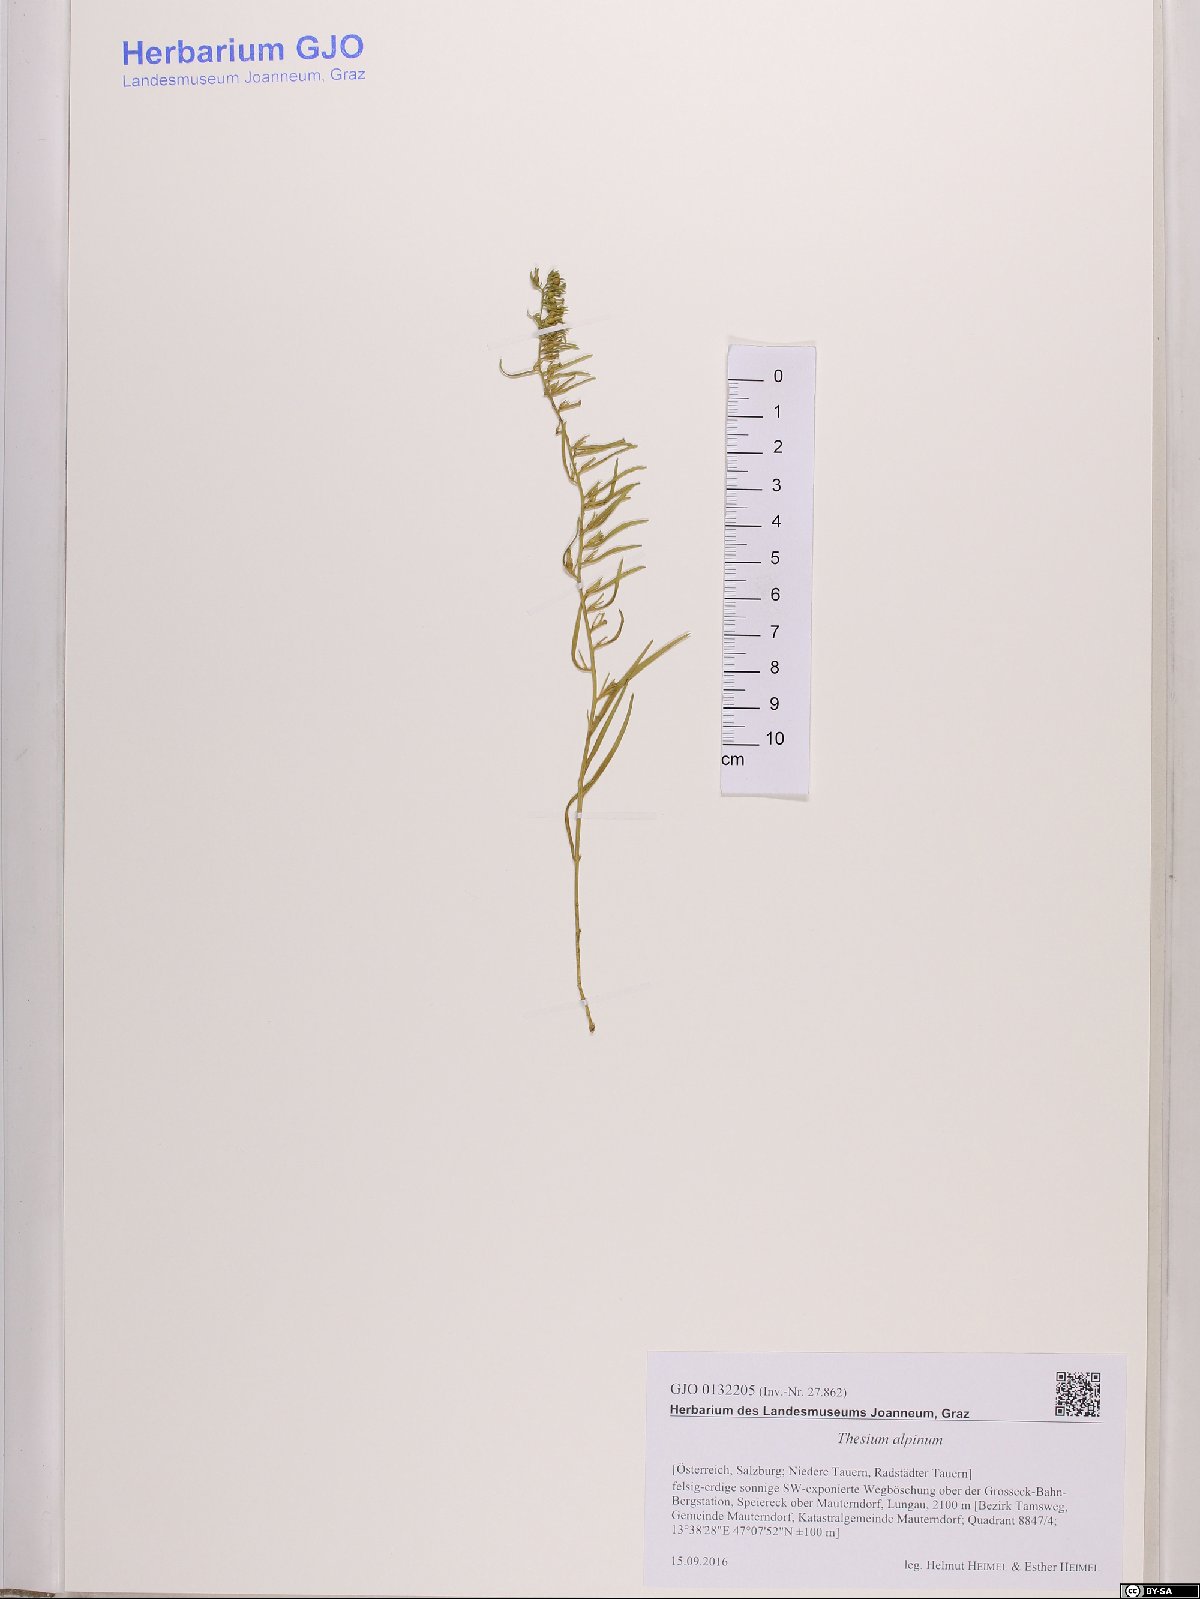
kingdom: Plantae
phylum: Tracheophyta
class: Magnoliopsida
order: Santalales
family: Thesiaceae
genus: Thesium
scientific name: Thesium alpinum
